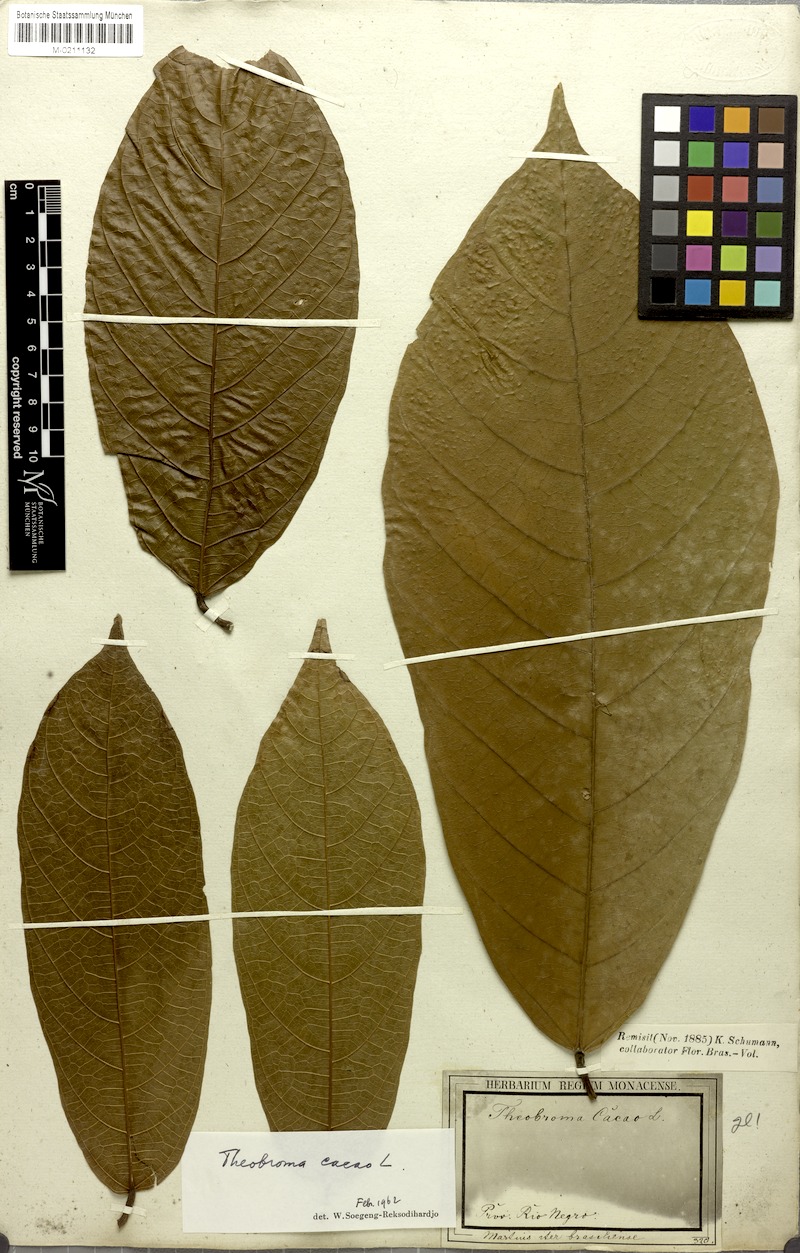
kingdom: Plantae
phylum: Tracheophyta
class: Magnoliopsida
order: Malvales
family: Malvaceae
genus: Theobroma
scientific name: Theobroma cacao
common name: Cocoa
